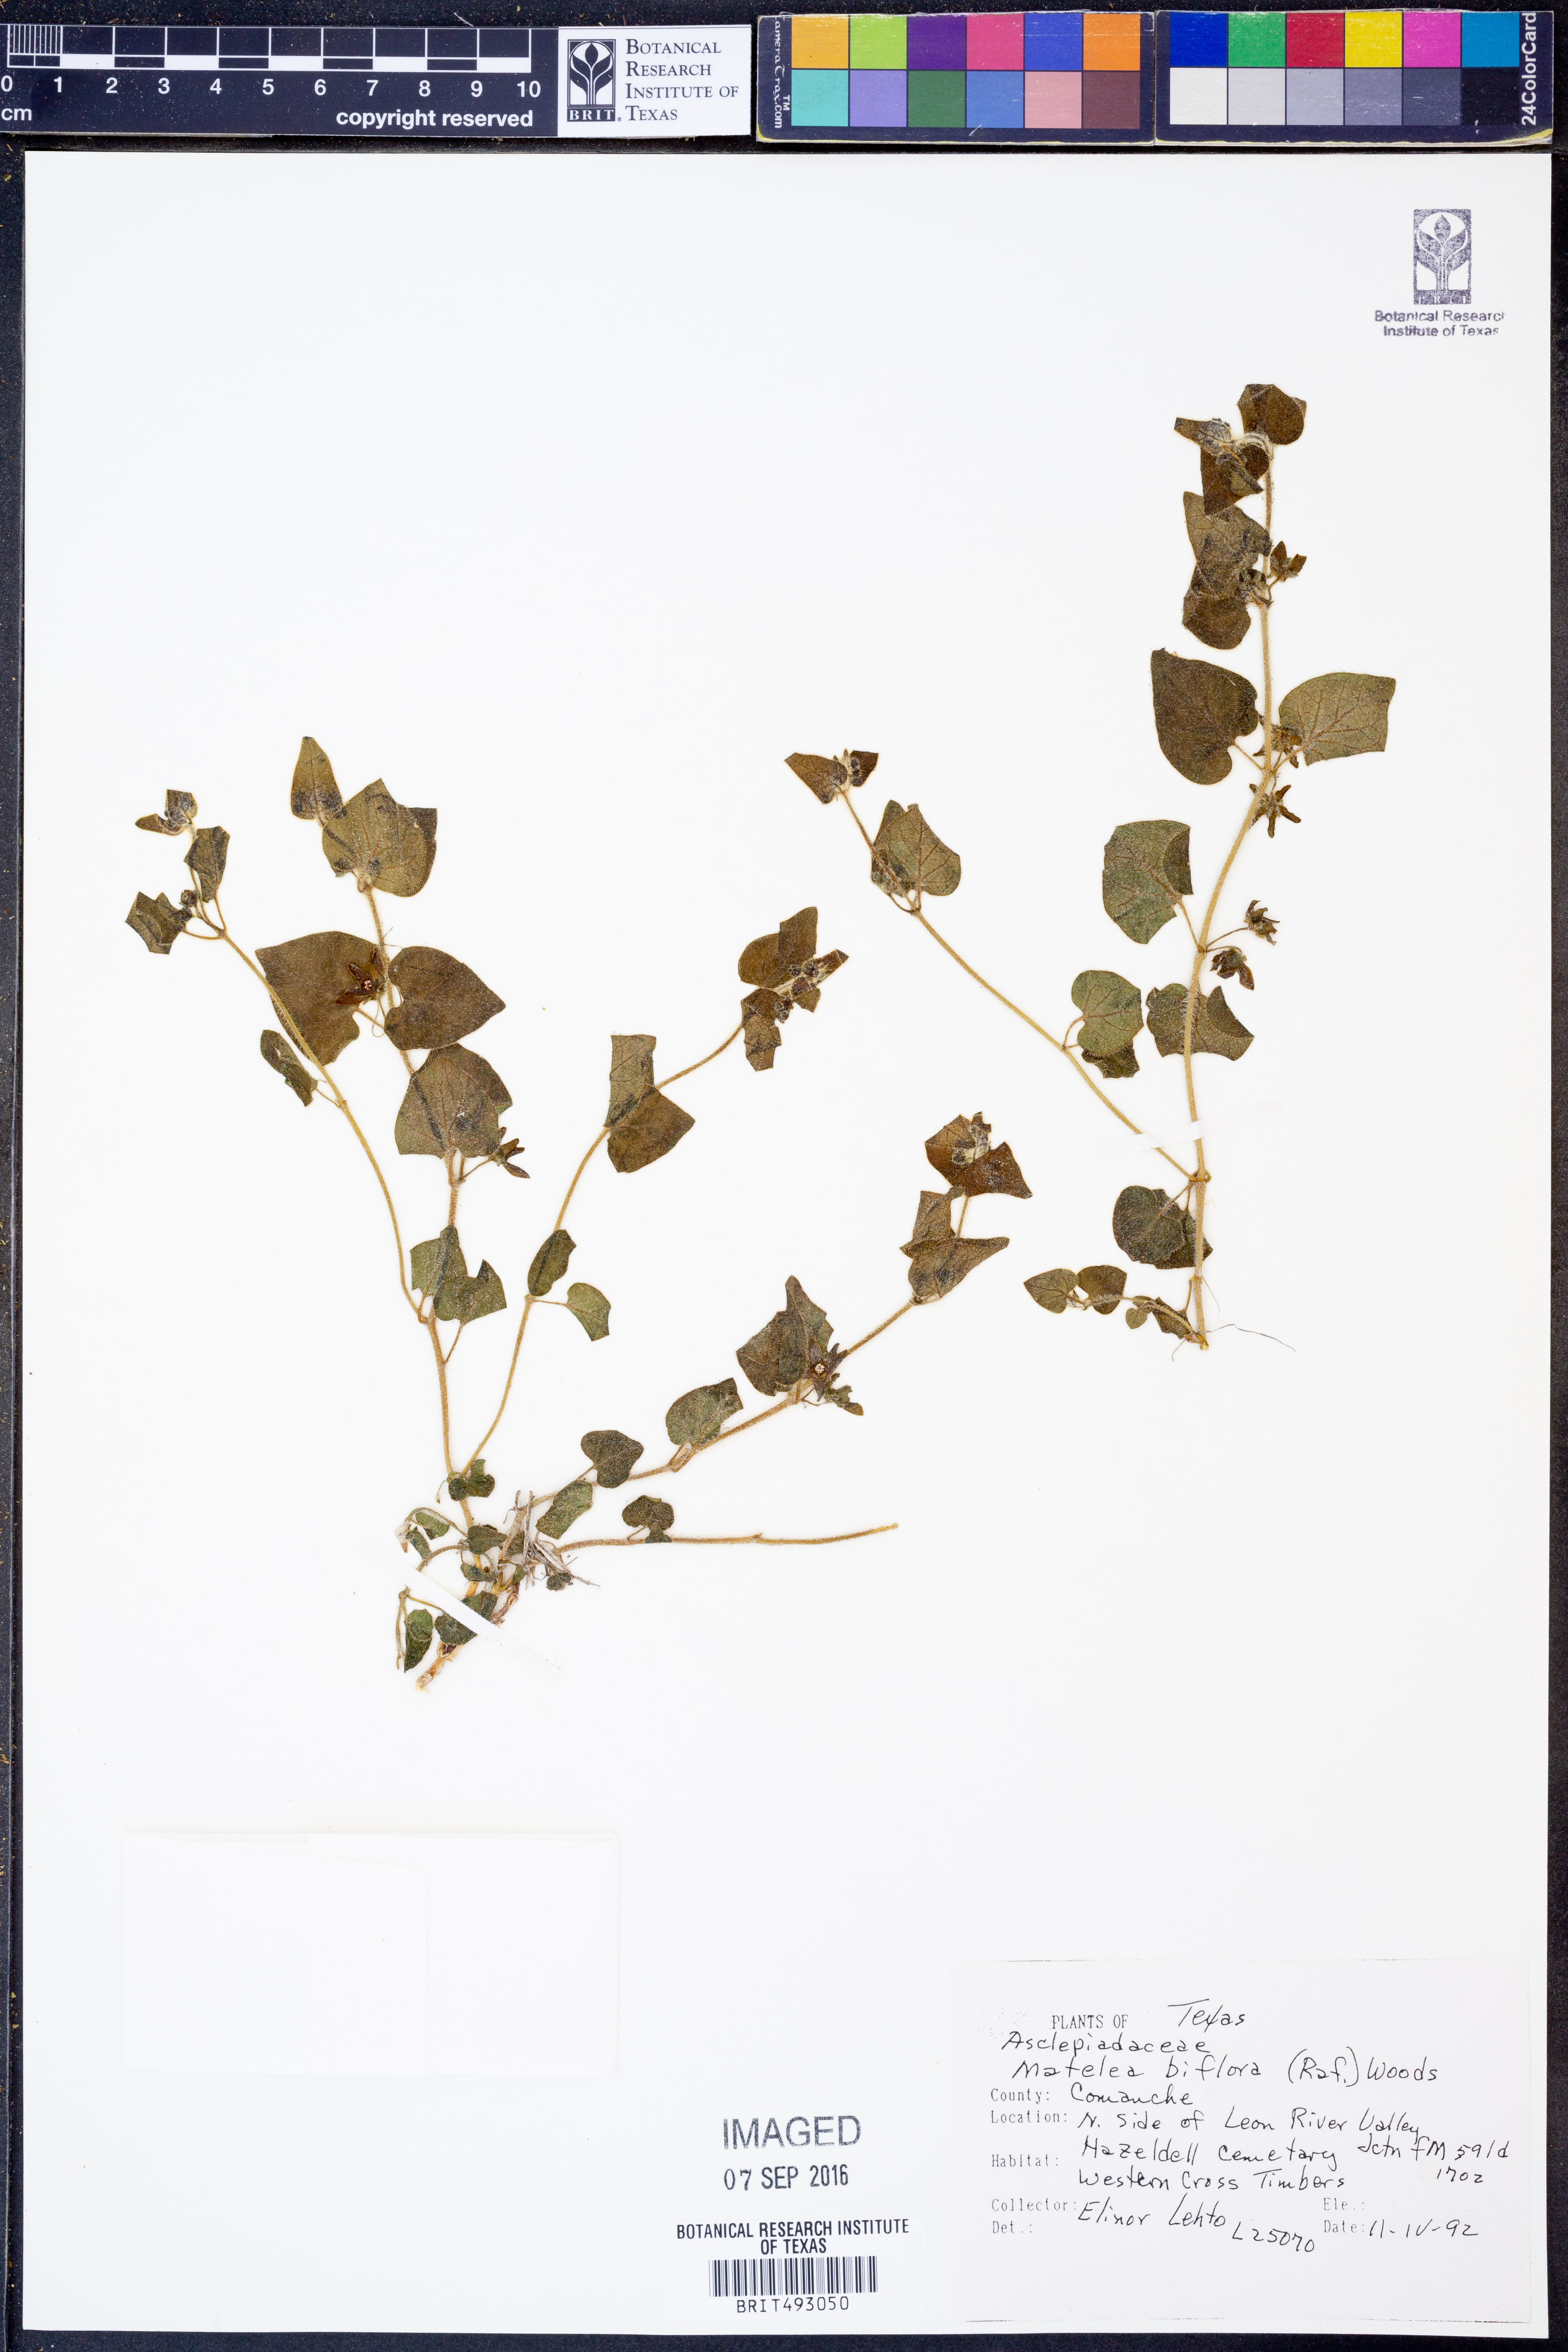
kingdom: Plantae
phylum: Tracheophyta
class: Magnoliopsida
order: Gentianales
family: Apocynaceae
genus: Chthamalia
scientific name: Chthamalia biflora
